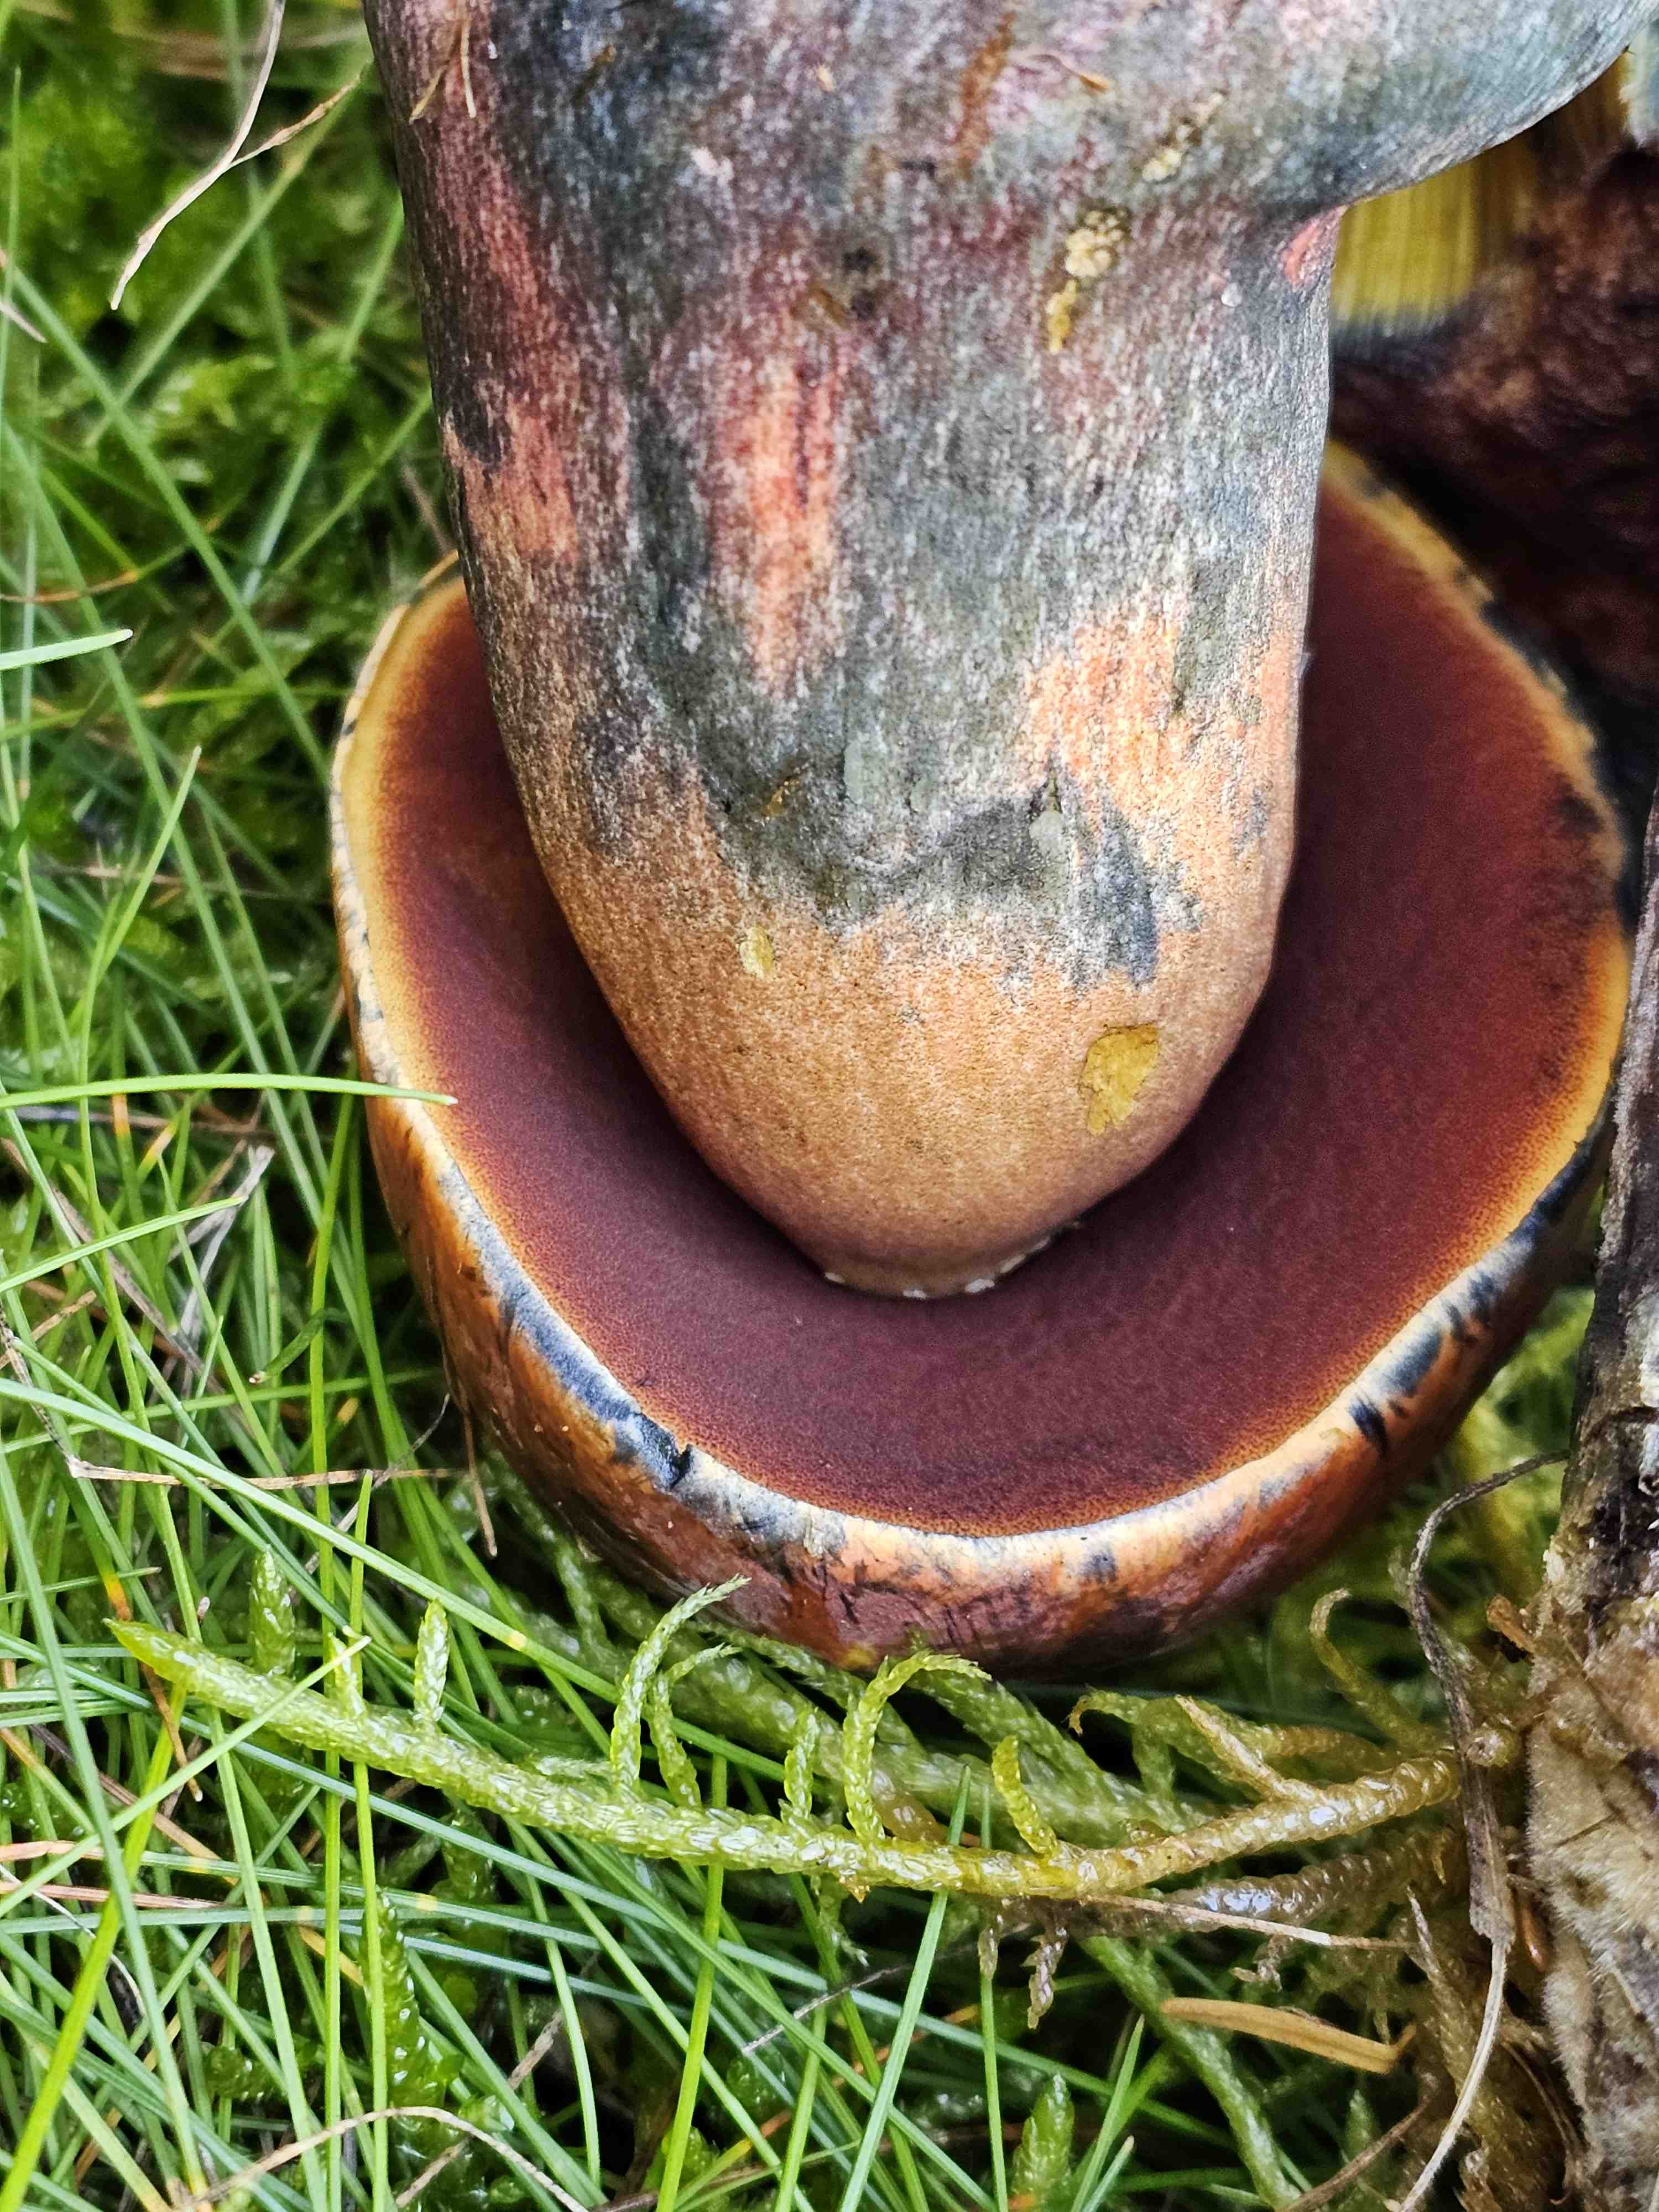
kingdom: Fungi
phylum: Basidiomycota
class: Agaricomycetes
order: Boletales
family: Boletaceae
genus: Neoboletus
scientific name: Neoboletus erythropus
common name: punktstokket indigorørhat
